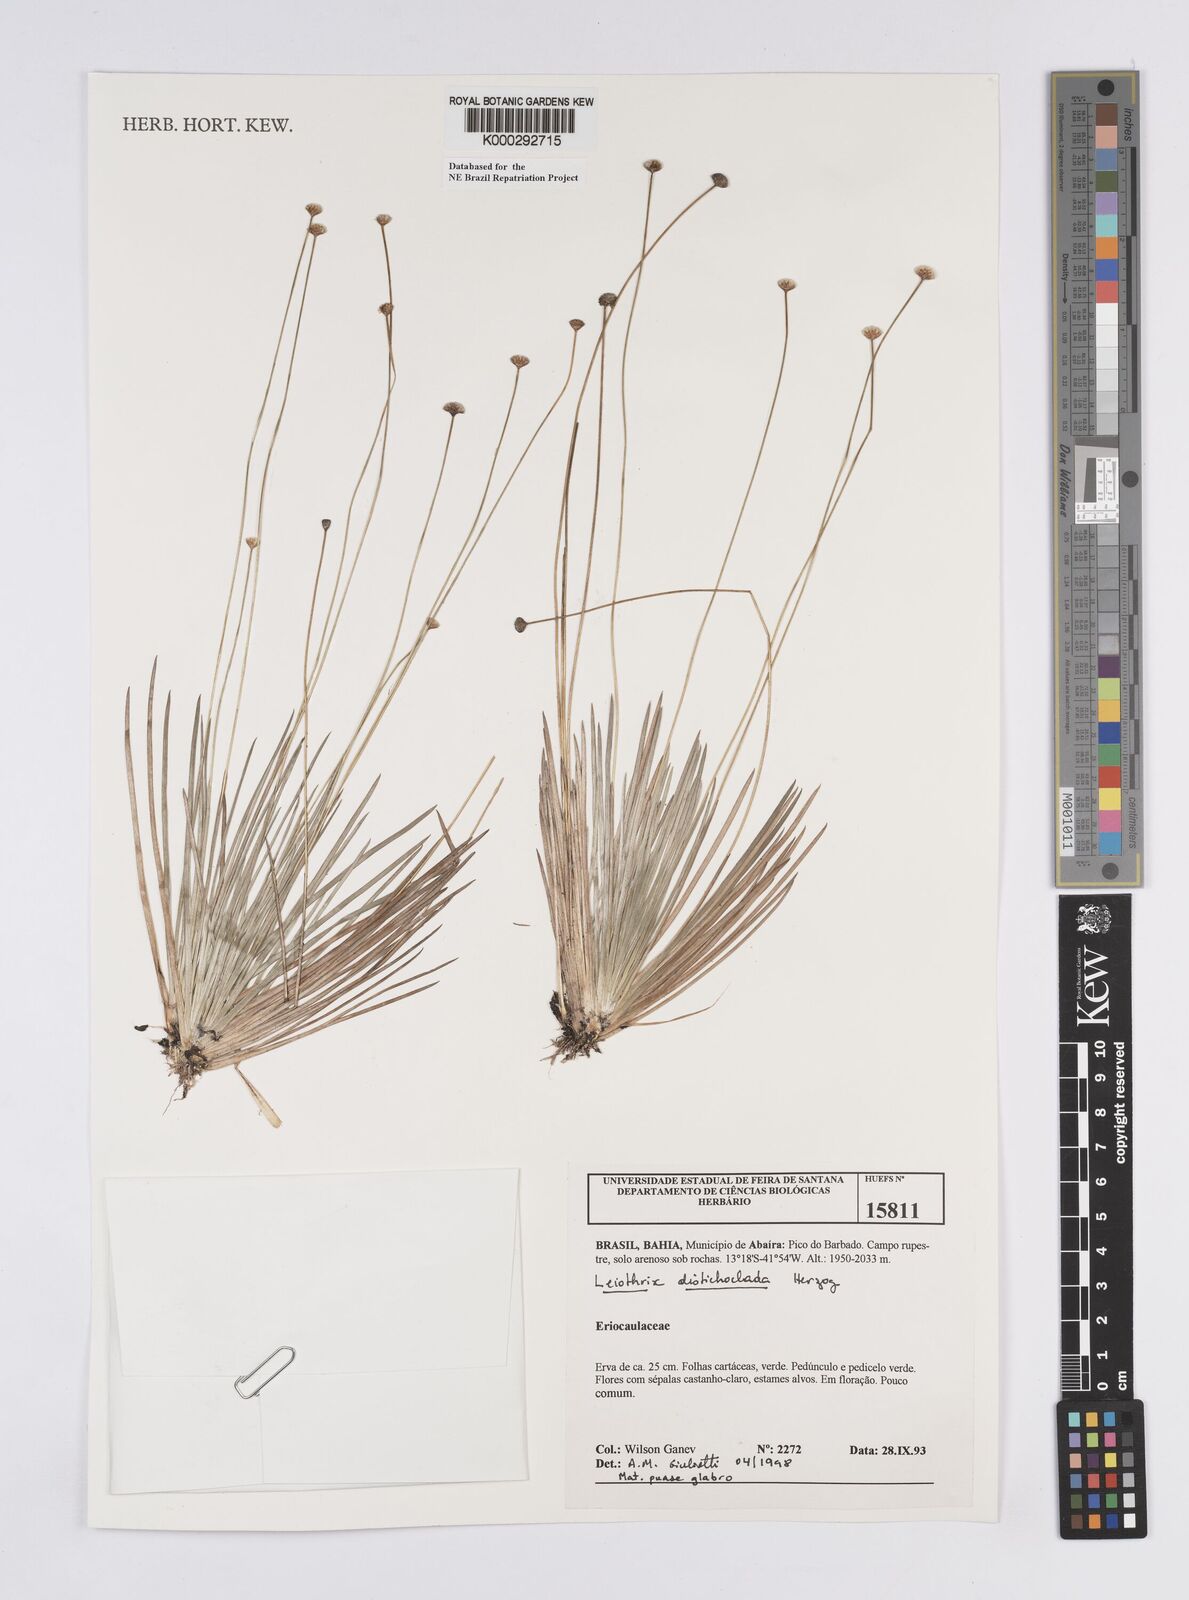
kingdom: Plantae
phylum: Tracheophyta
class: Liliopsida
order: Poales
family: Eriocaulaceae
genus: Leiothrix
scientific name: Leiothrix distichoclada
